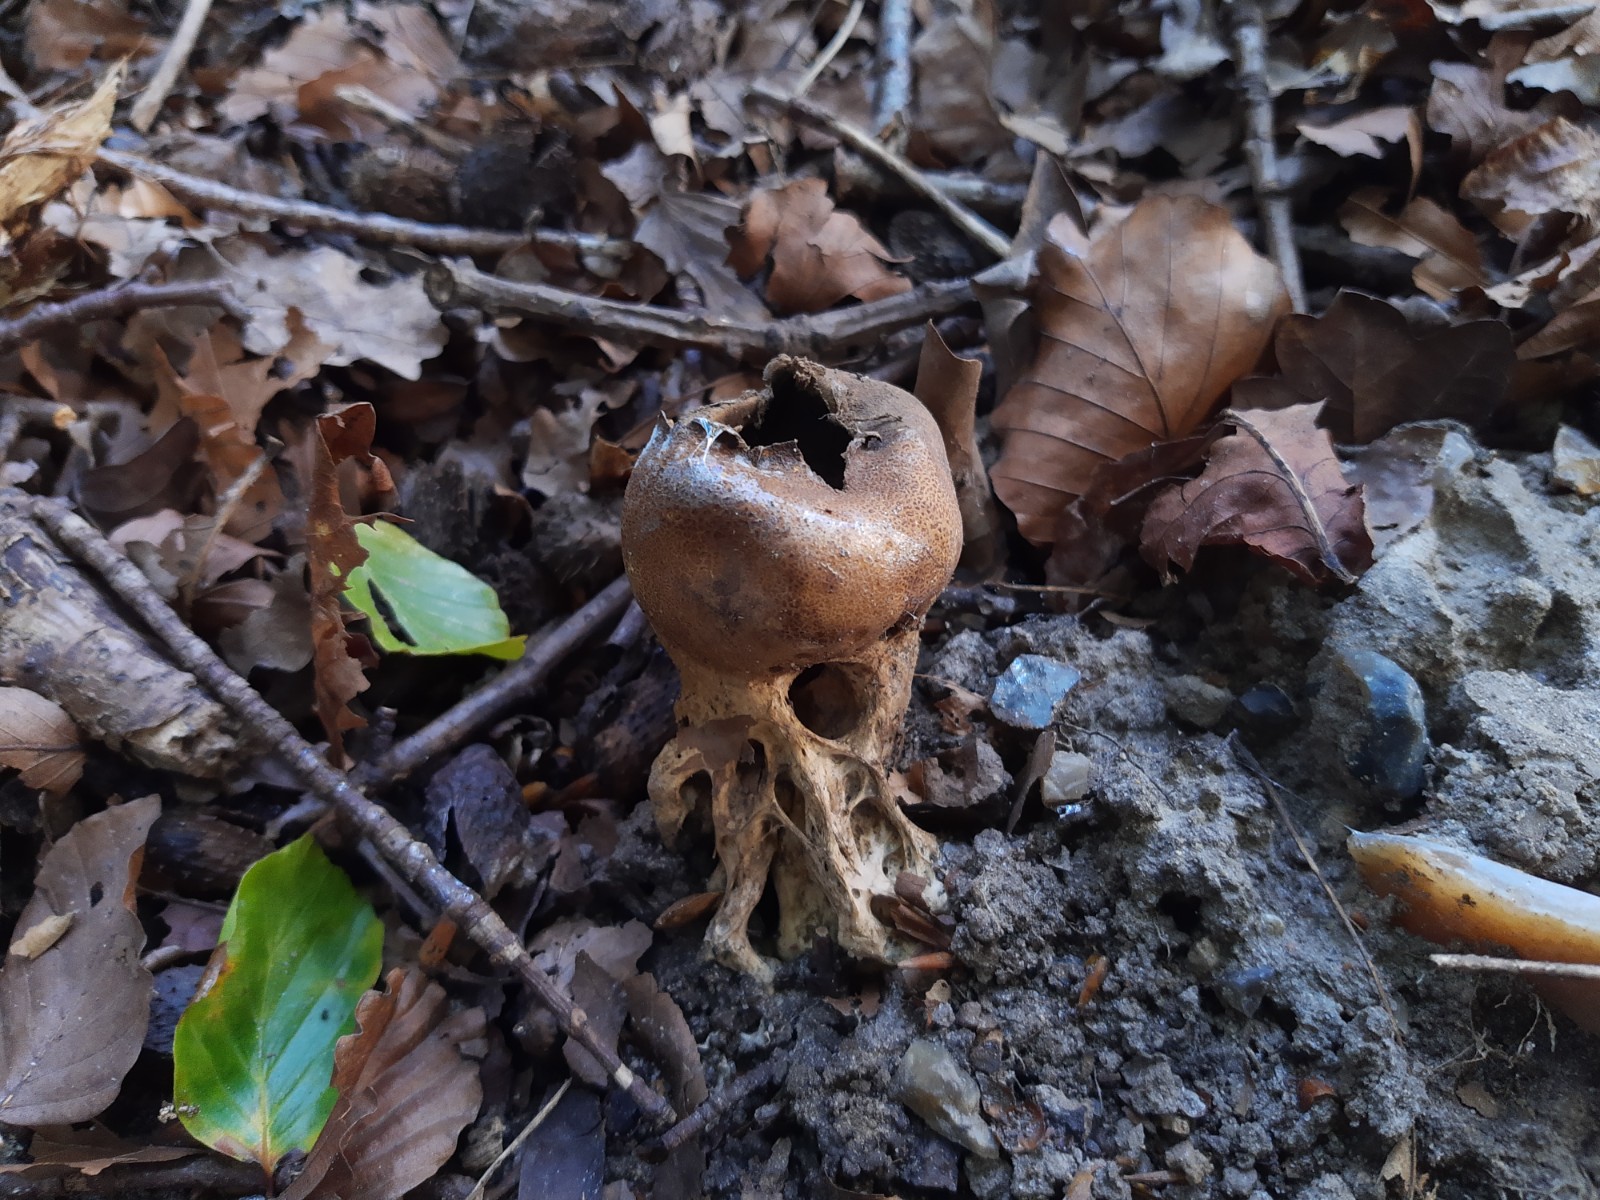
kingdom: Fungi
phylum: Basidiomycota
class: Agaricomycetes
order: Boletales
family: Sclerodermataceae
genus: Scleroderma
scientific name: Scleroderma verrucosum
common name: stilket bruskbold
